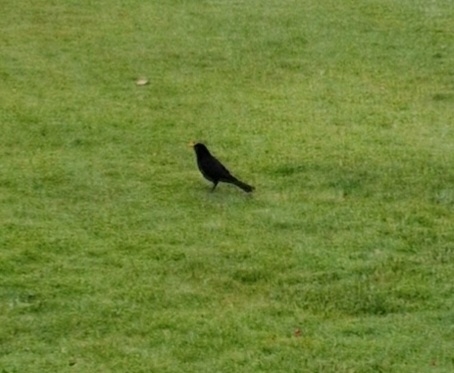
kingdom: Animalia
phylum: Chordata
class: Aves
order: Passeriformes
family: Turdidae
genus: Turdus
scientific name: Turdus merula
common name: Solsort
